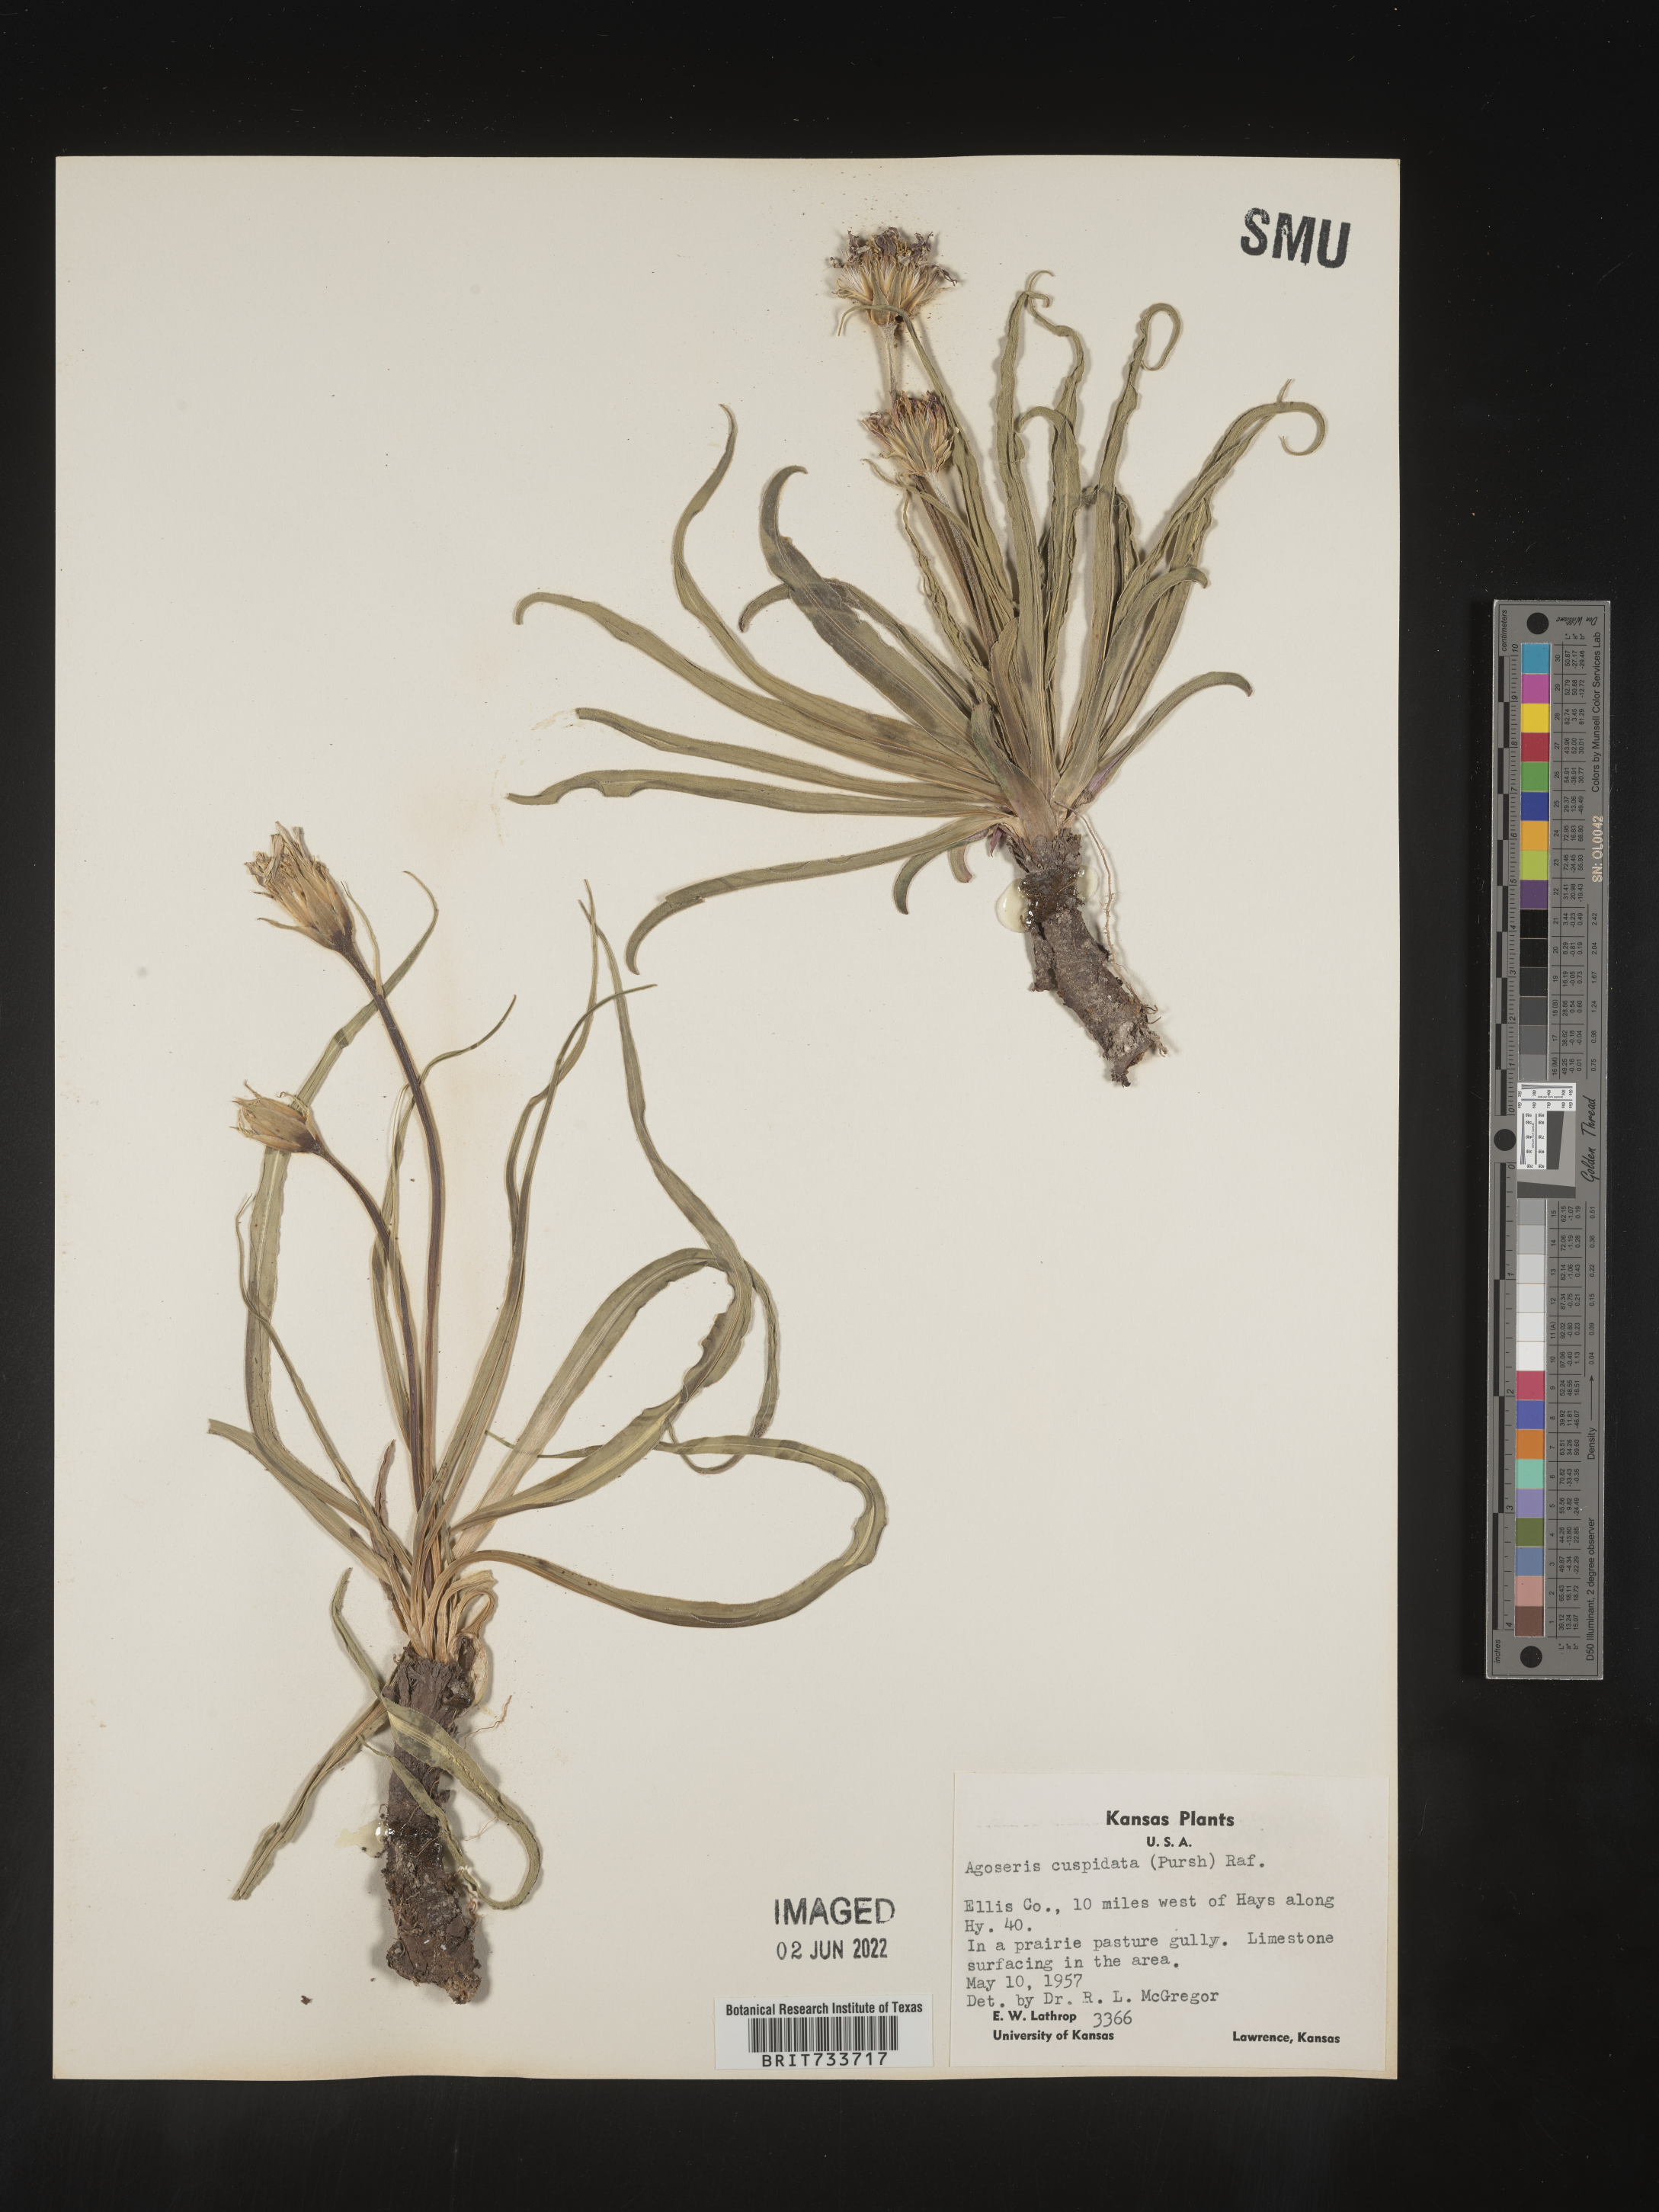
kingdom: Plantae
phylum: Tracheophyta
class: Magnoliopsida
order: Asterales
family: Asteraceae
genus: Microseris
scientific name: Microseris
